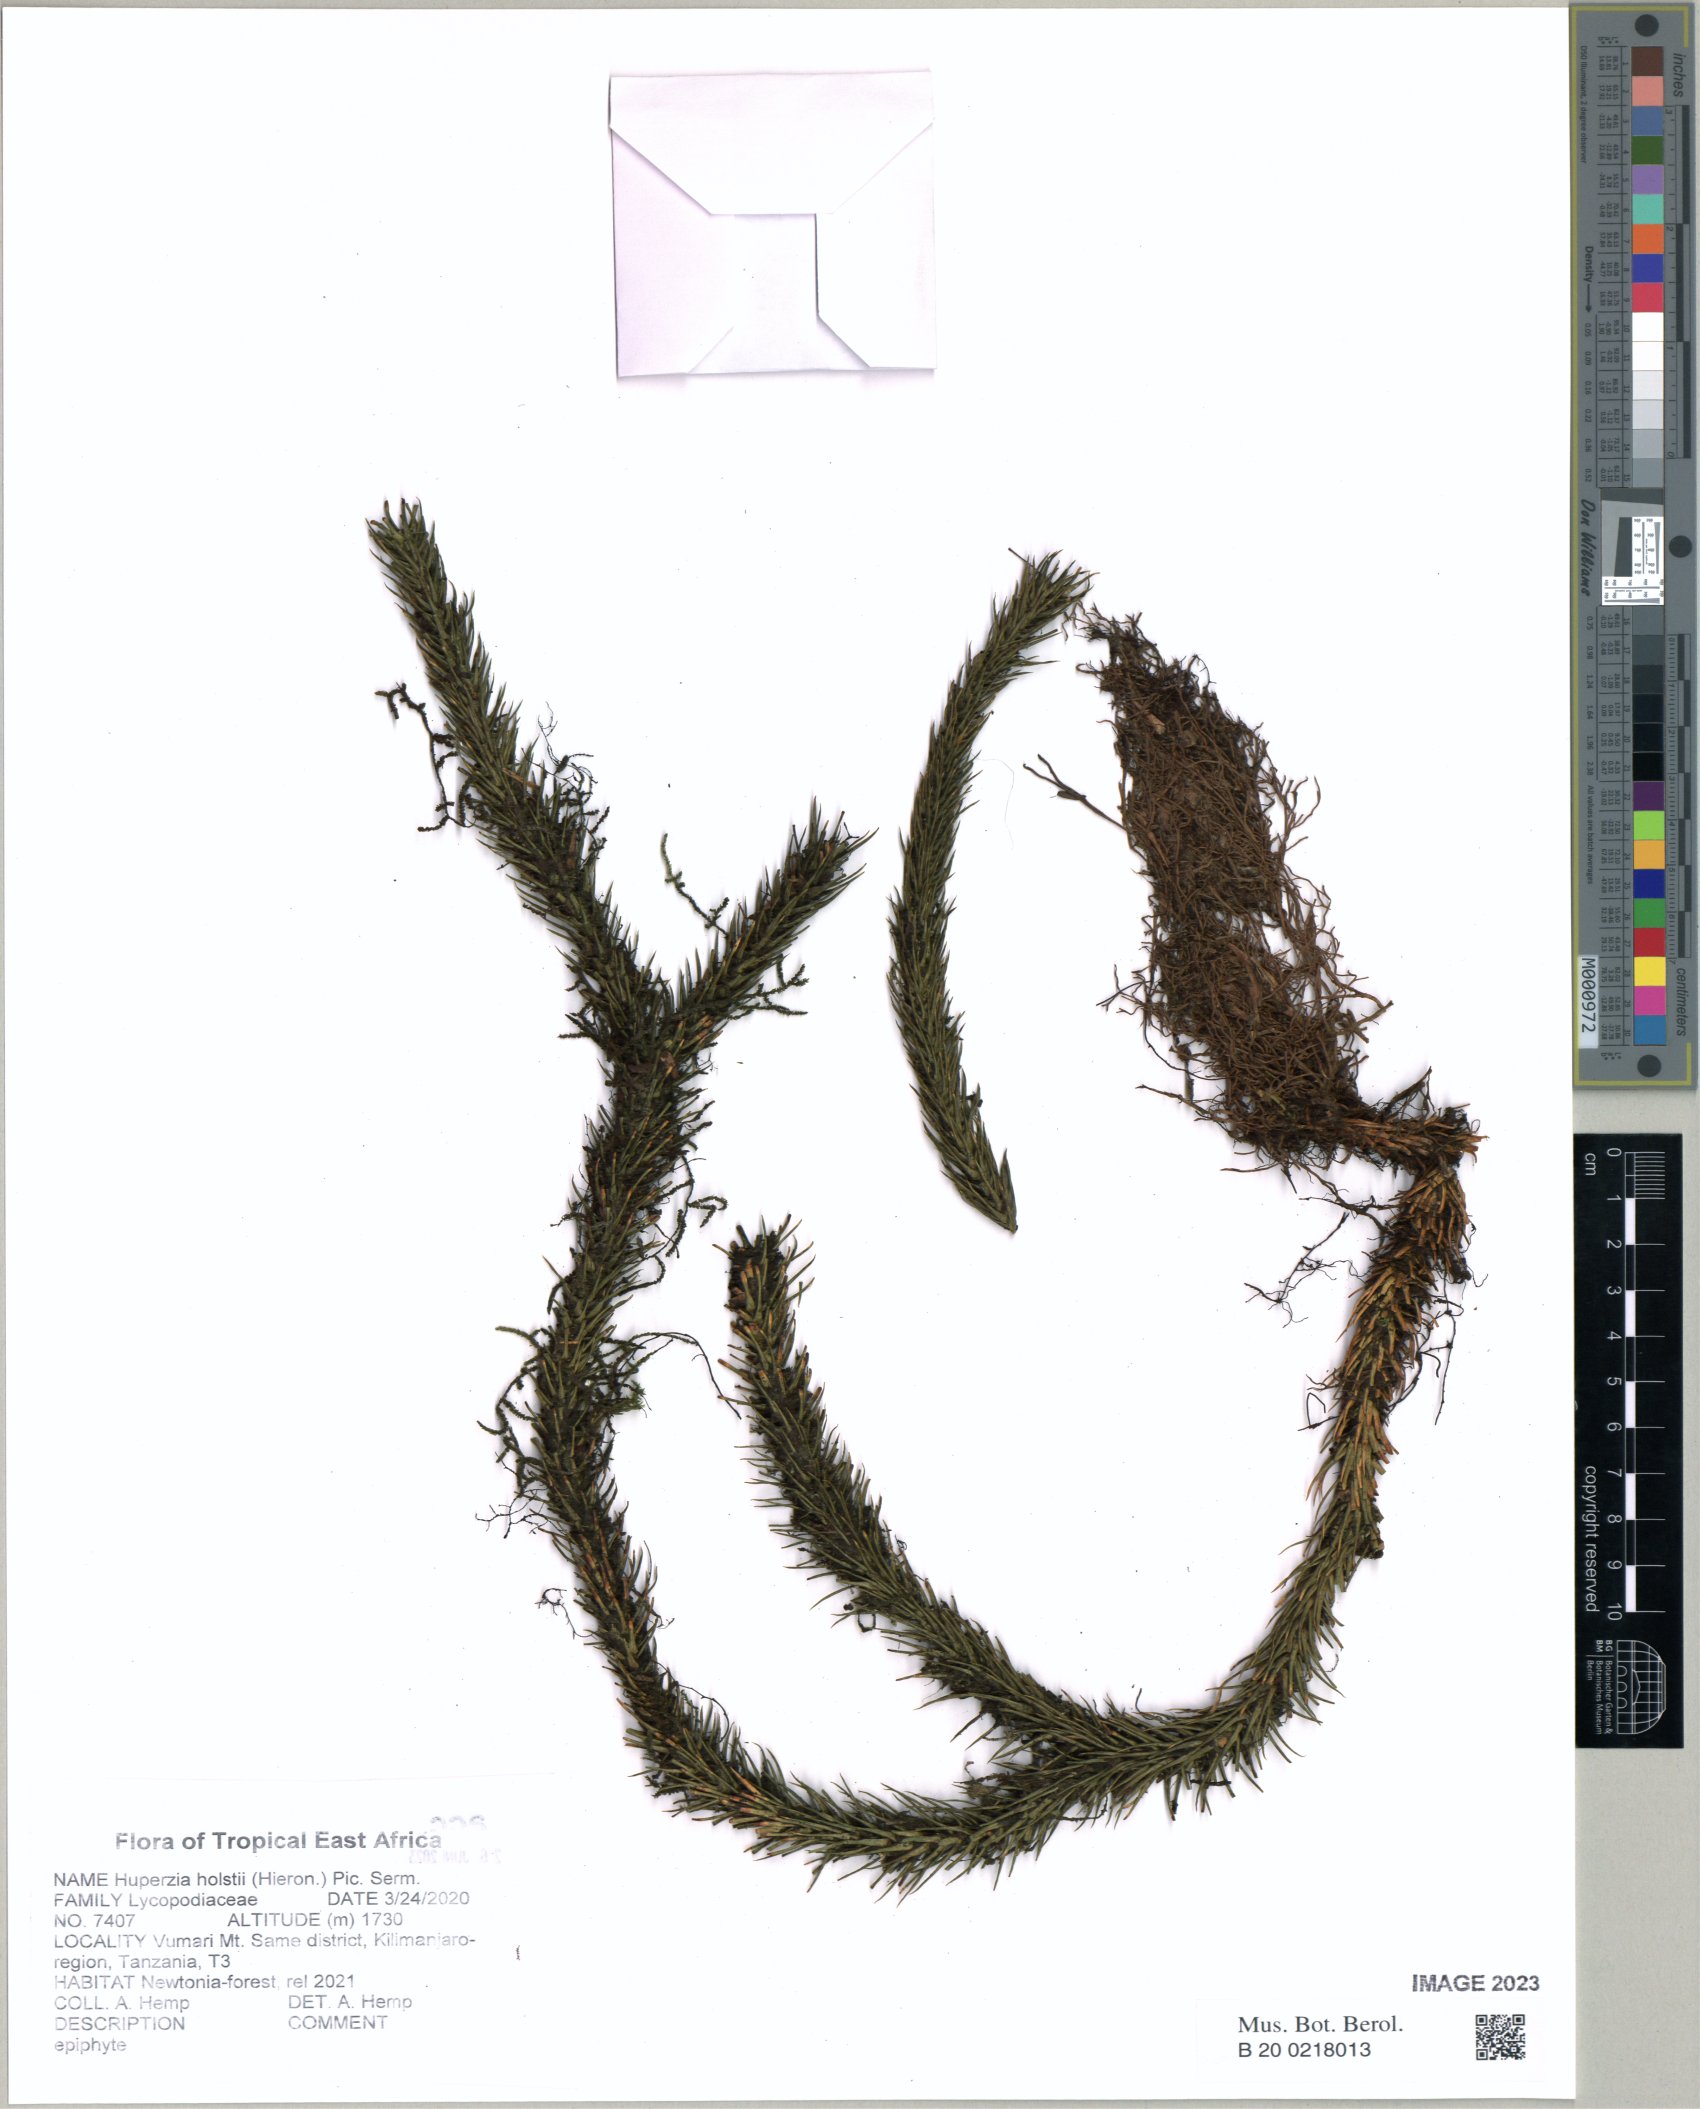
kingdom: Plantae
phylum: Tracheophyta
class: Lycopodiopsida
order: Lycopodiales
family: Lycopodiaceae
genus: Phlegmariurus
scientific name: Phlegmariurus holstii
